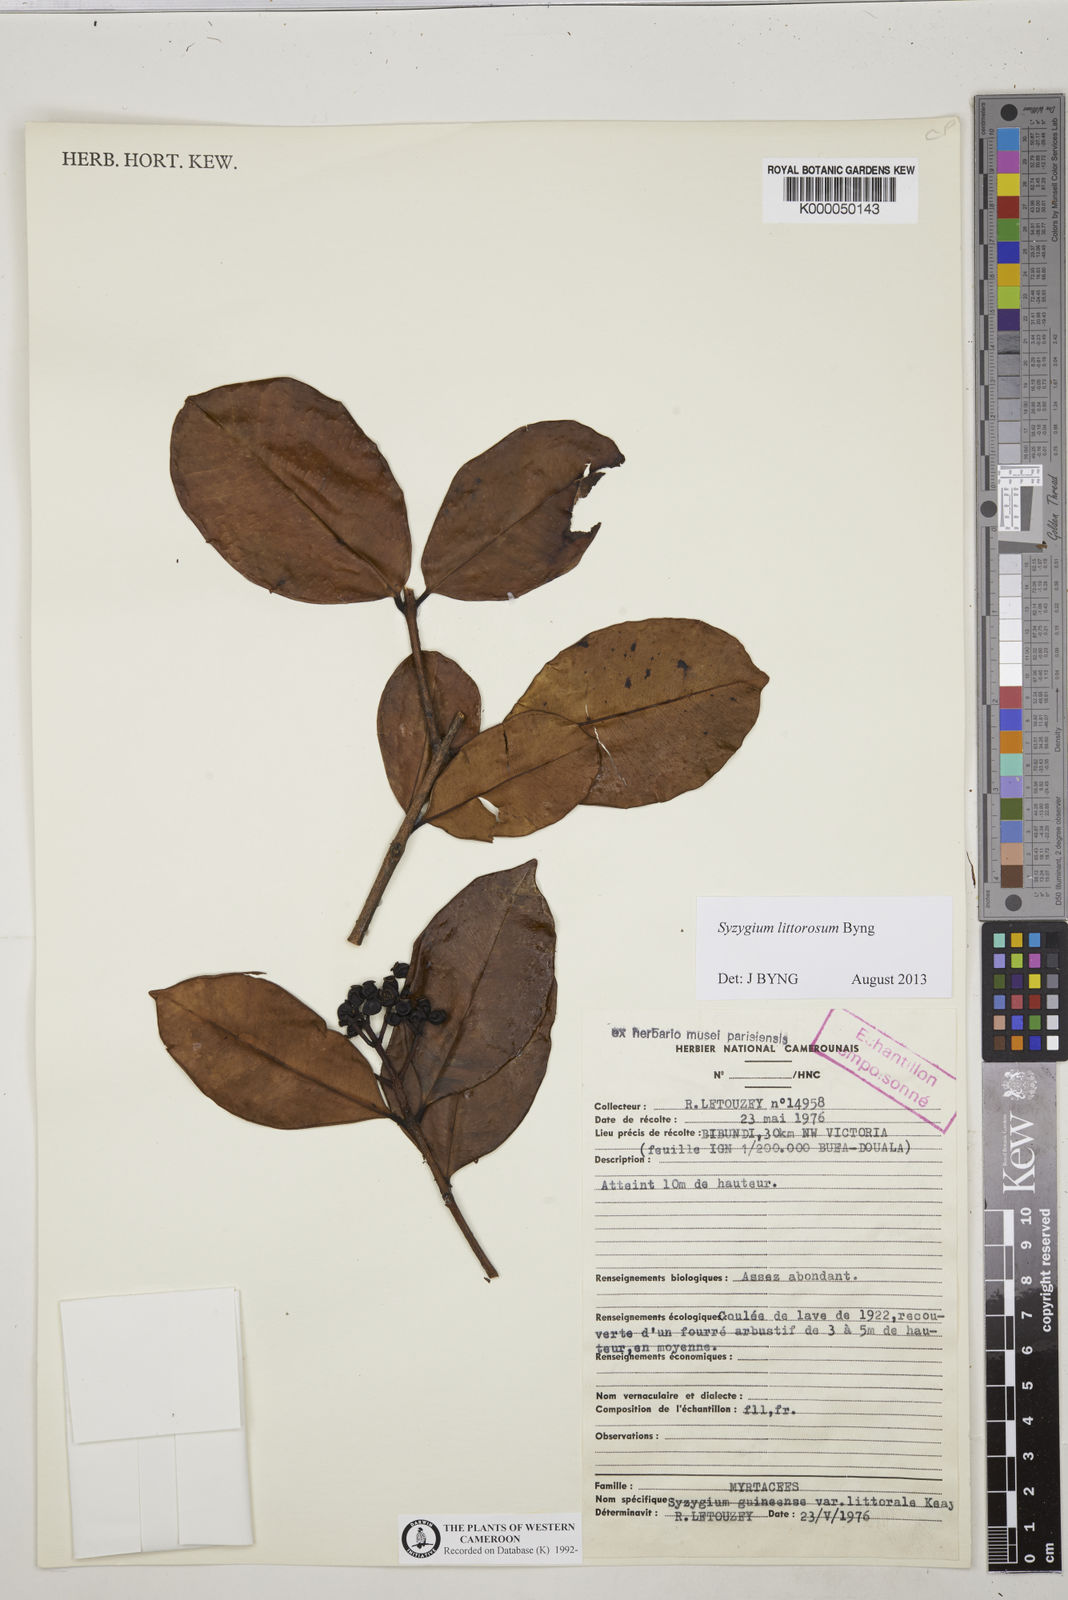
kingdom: Plantae
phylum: Tracheophyta
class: Magnoliopsida
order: Myrtales
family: Myrtaceae
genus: Syzygium
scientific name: Syzygium guineense
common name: Water-pear
